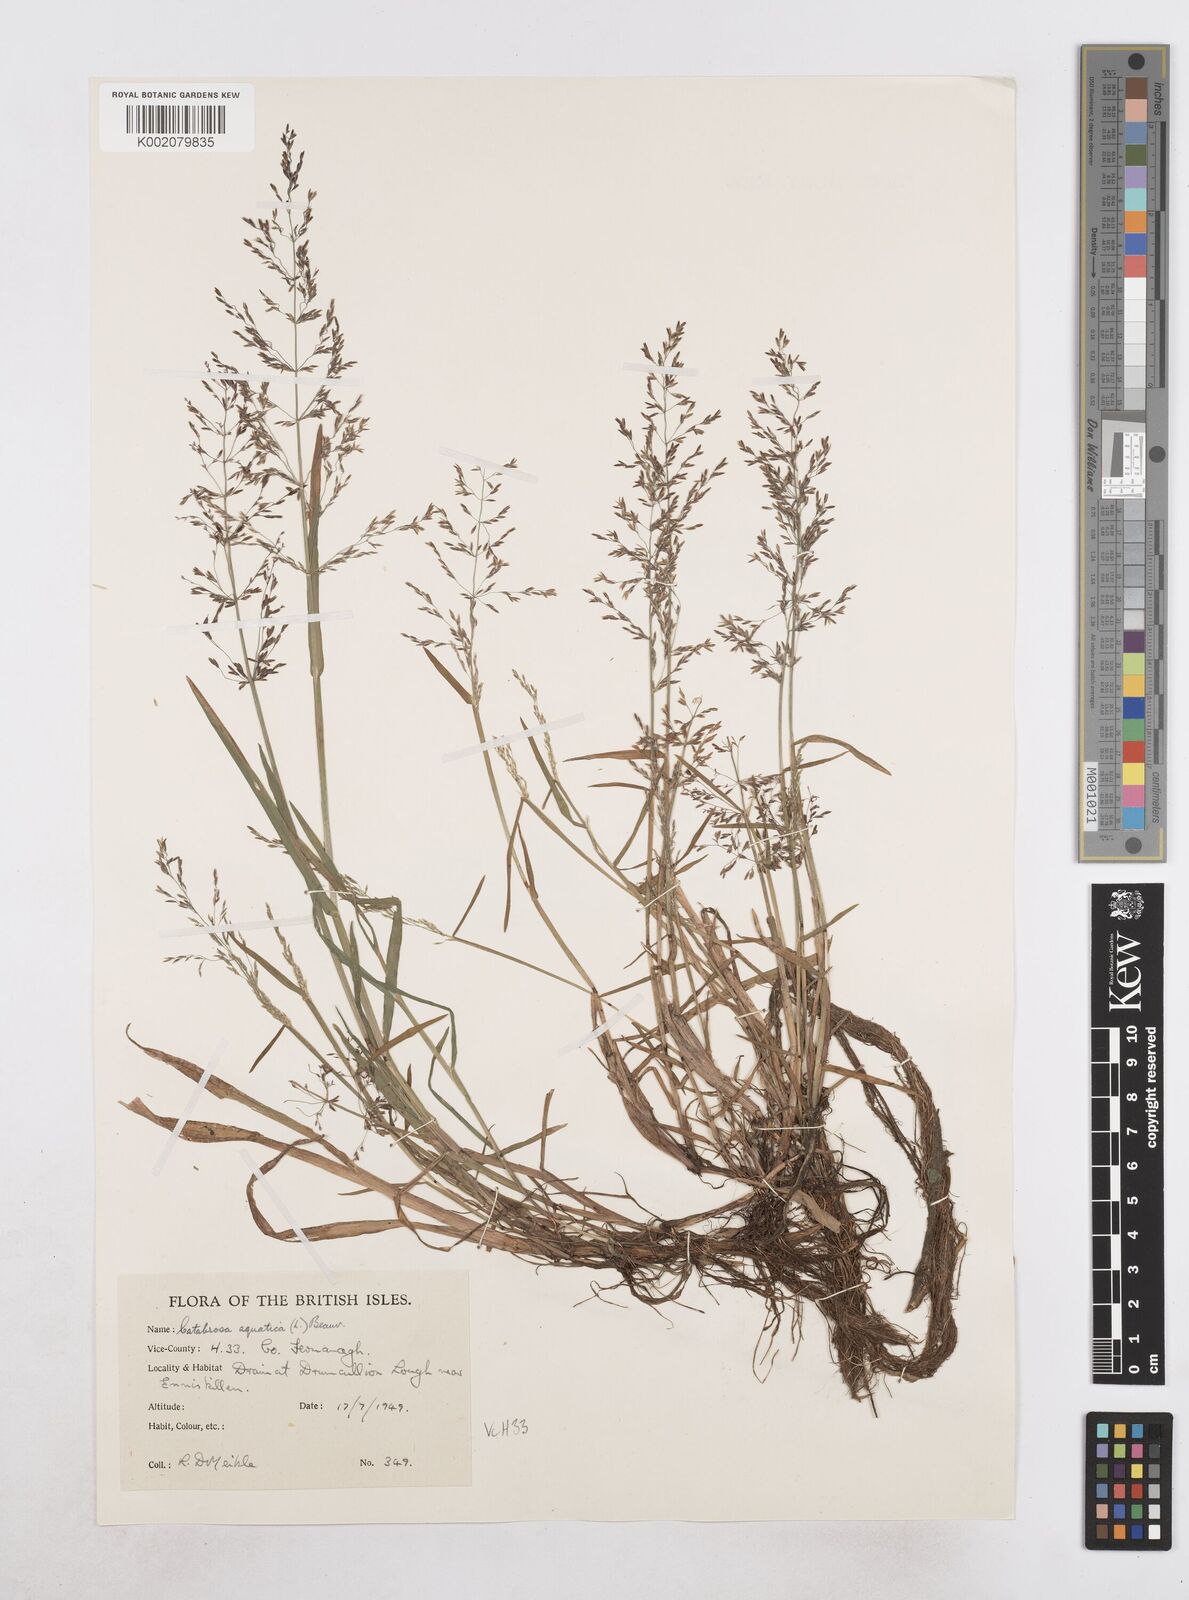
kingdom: Plantae
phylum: Tracheophyta
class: Liliopsida
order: Poales
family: Poaceae
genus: Catabrosa
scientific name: Catabrosa aquatica
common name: Whorl-grass
